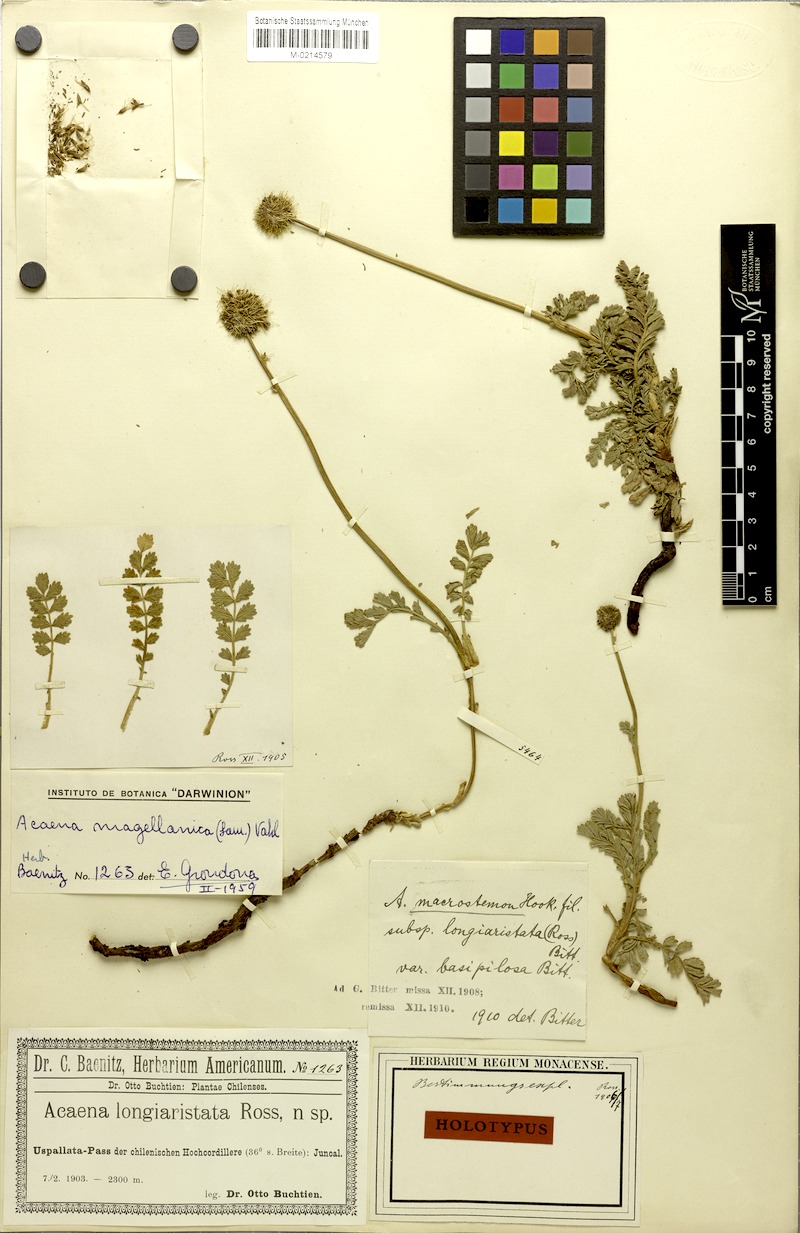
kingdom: Plantae
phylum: Tracheophyta
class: Magnoliopsida
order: Rosales
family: Rosaceae
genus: Acaena
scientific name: Acaena magellanica
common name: New zealand burr
